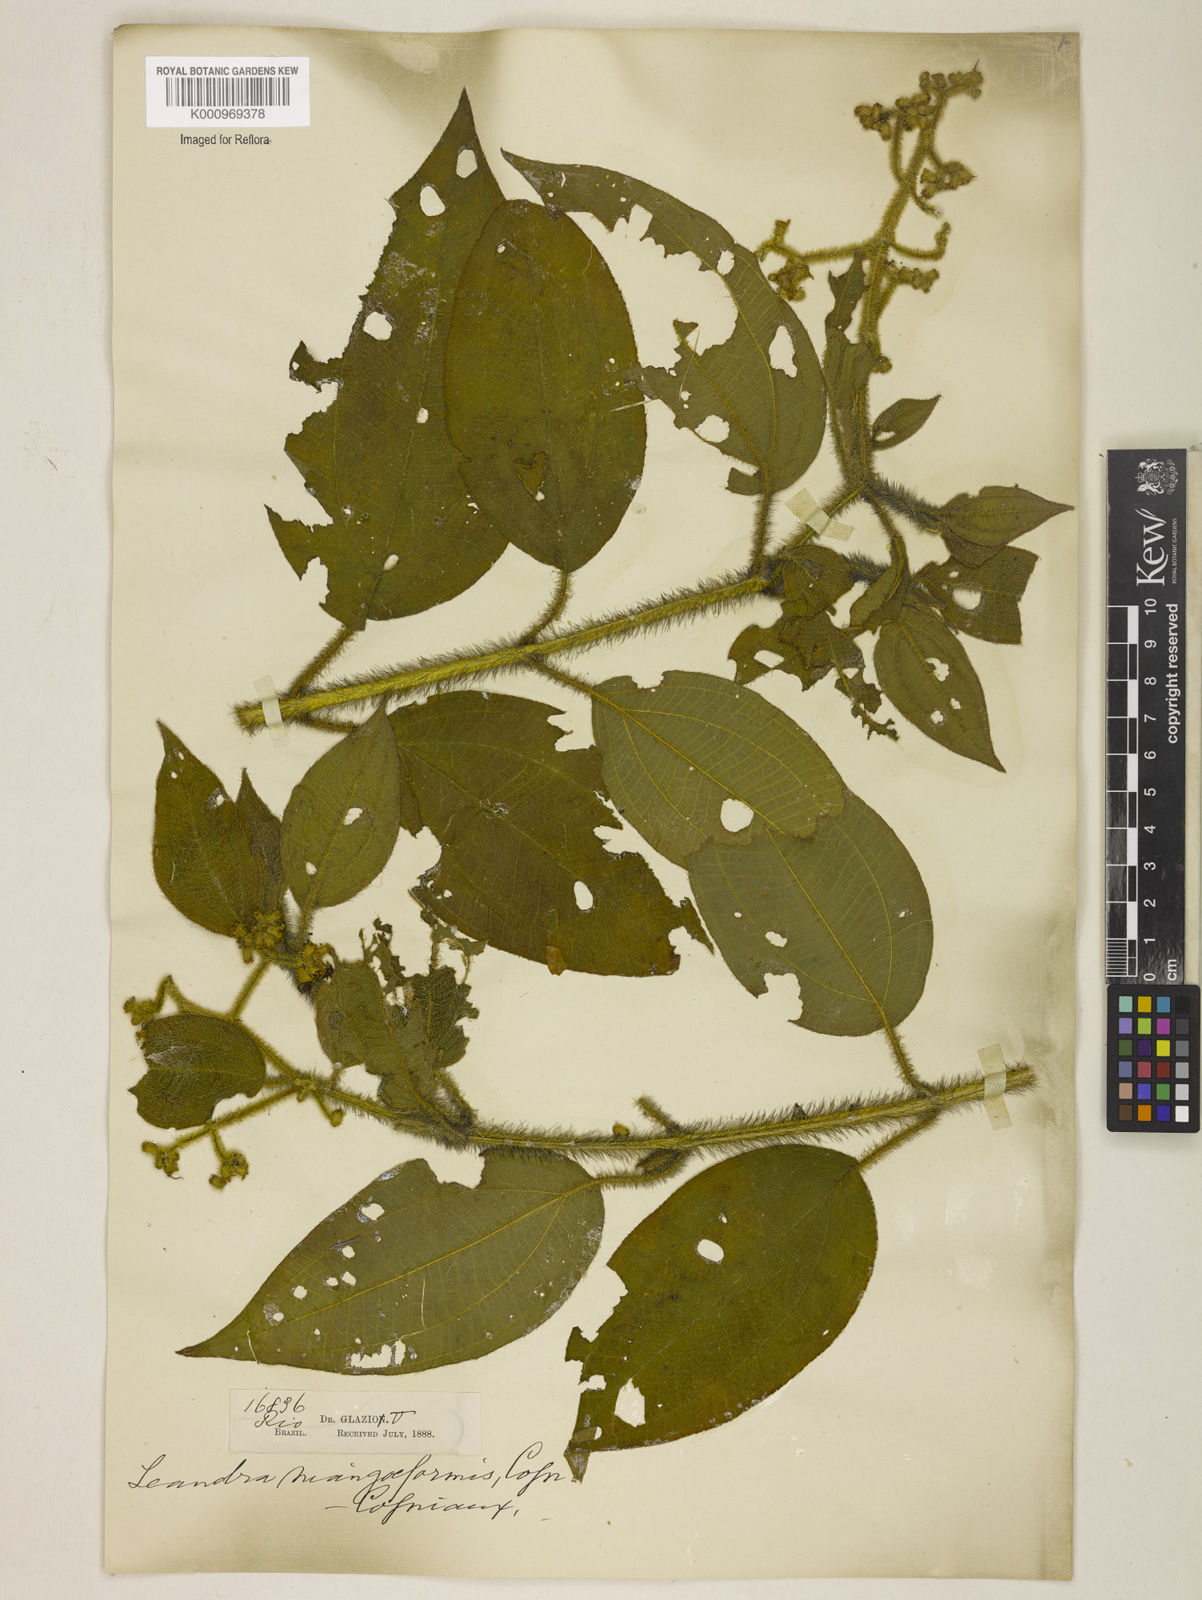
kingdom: Plantae
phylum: Tracheophyta
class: Magnoliopsida
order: Myrtales
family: Melastomataceae
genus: Miconia
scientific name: Miconia
